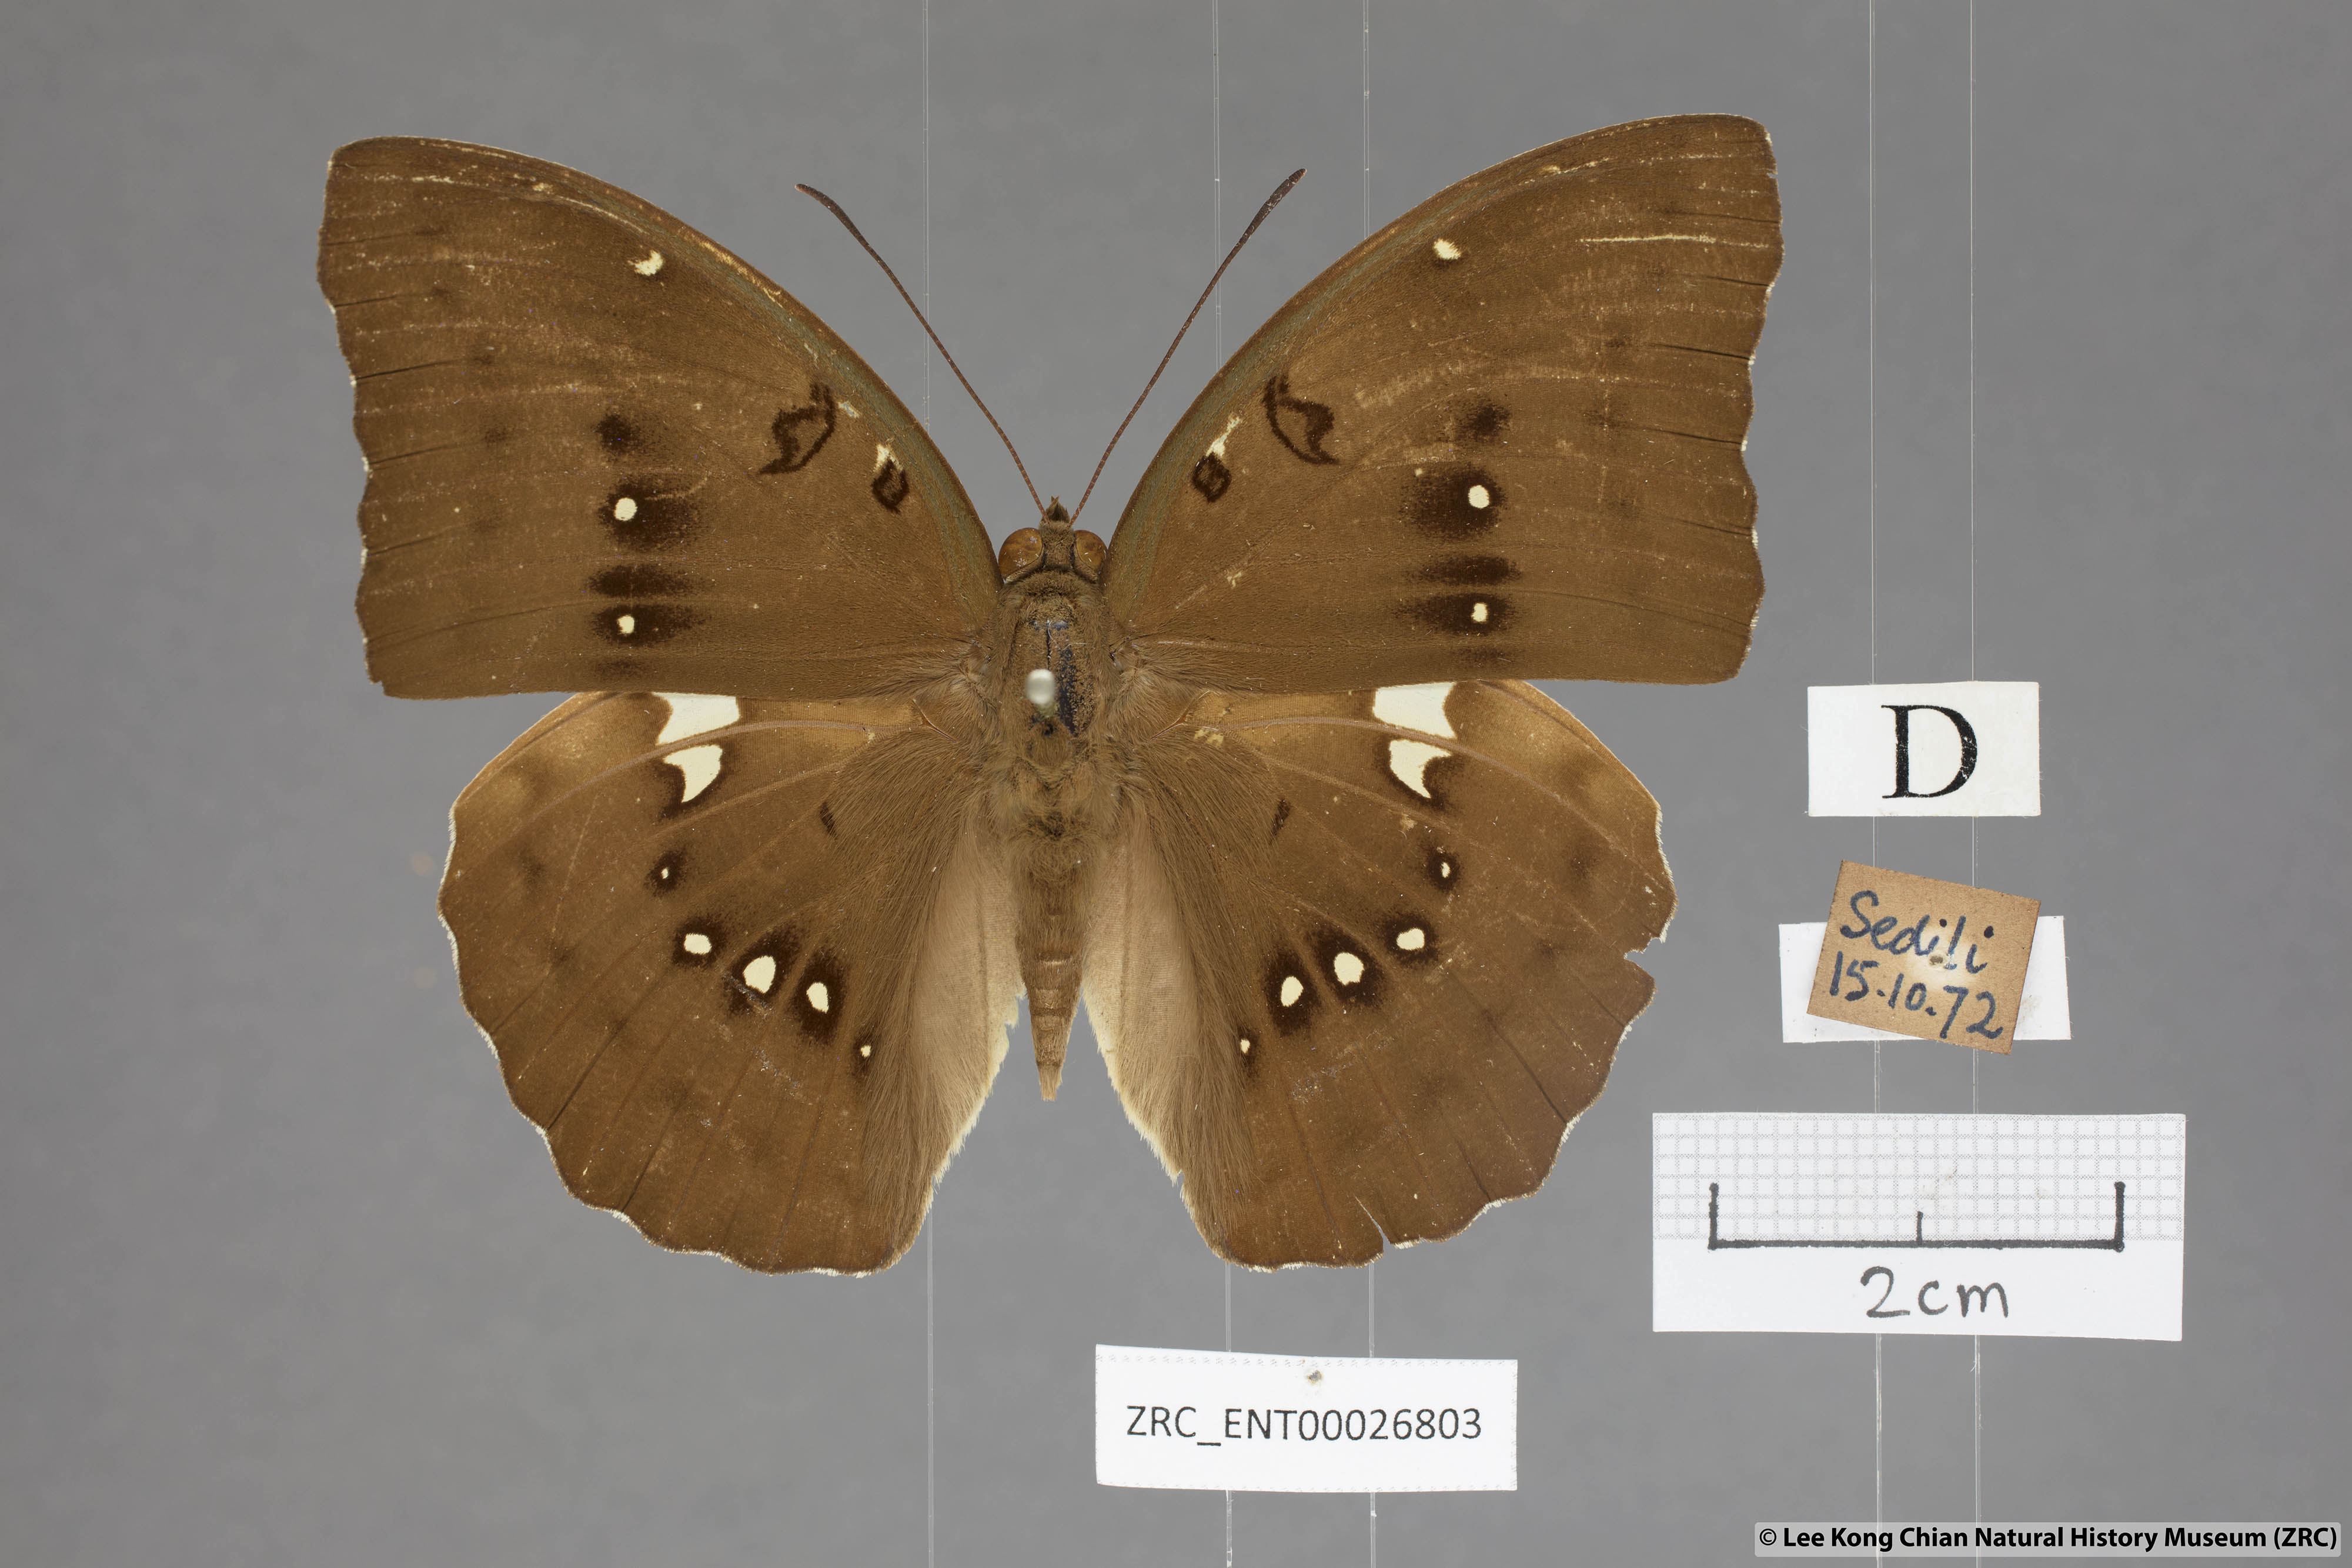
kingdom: Animalia
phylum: Arthropoda
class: Insecta
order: Lepidoptera
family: Nymphalidae
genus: Euthalia
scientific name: Euthalia Bassarona dunya
